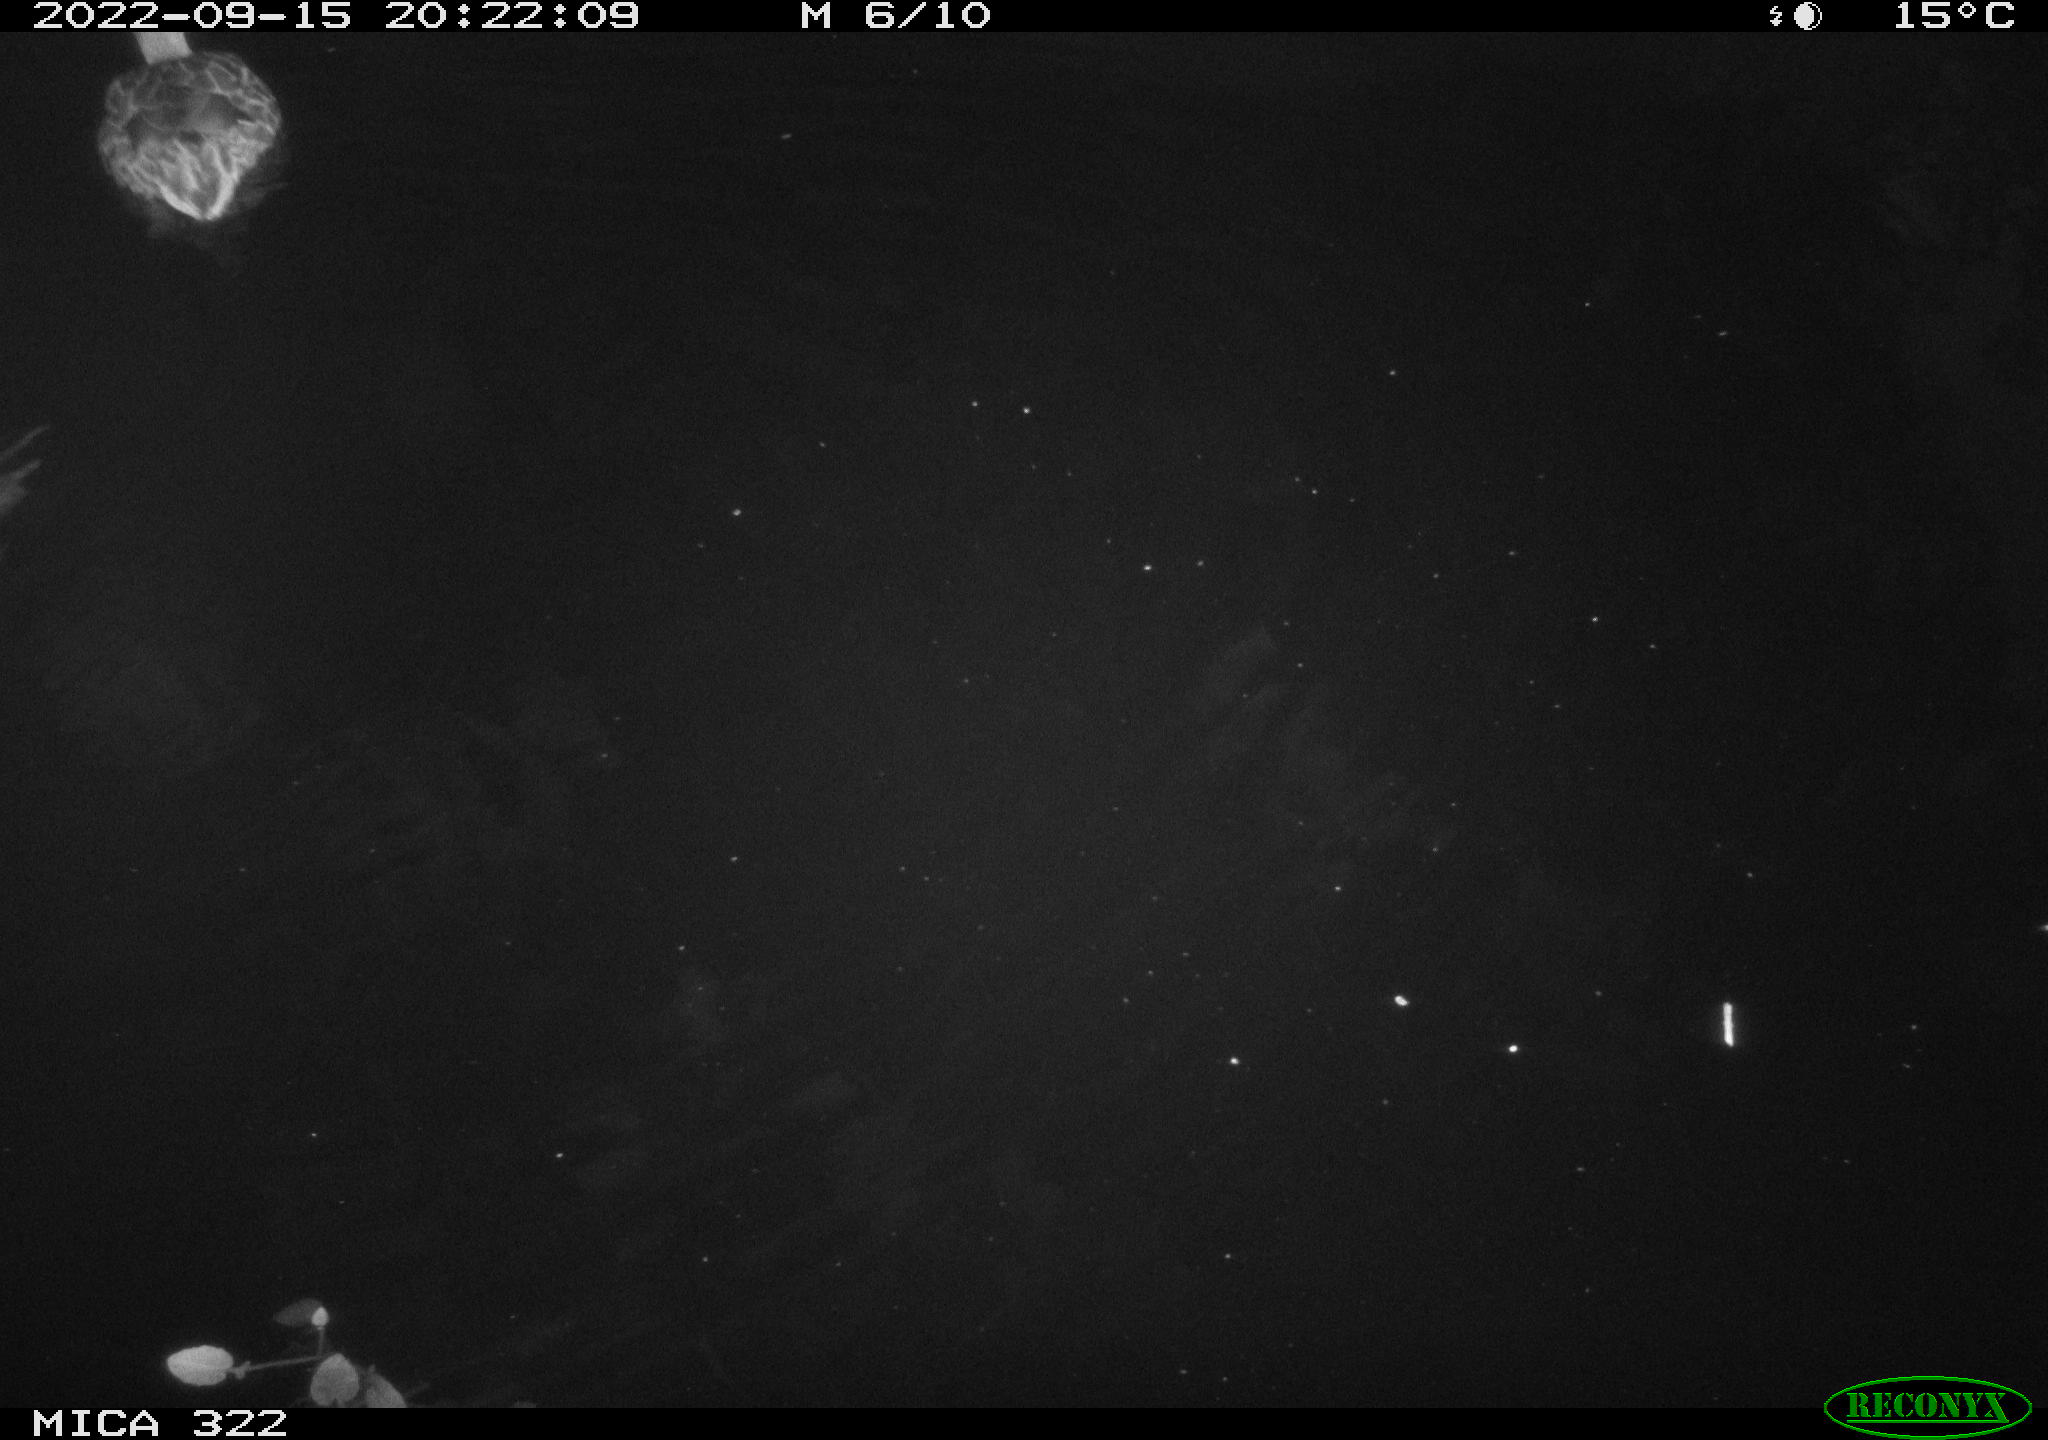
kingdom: Animalia
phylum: Chordata
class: Aves
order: Anseriformes
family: Anatidae
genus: Anas
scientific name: Anas platyrhynchos
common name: Mallard
